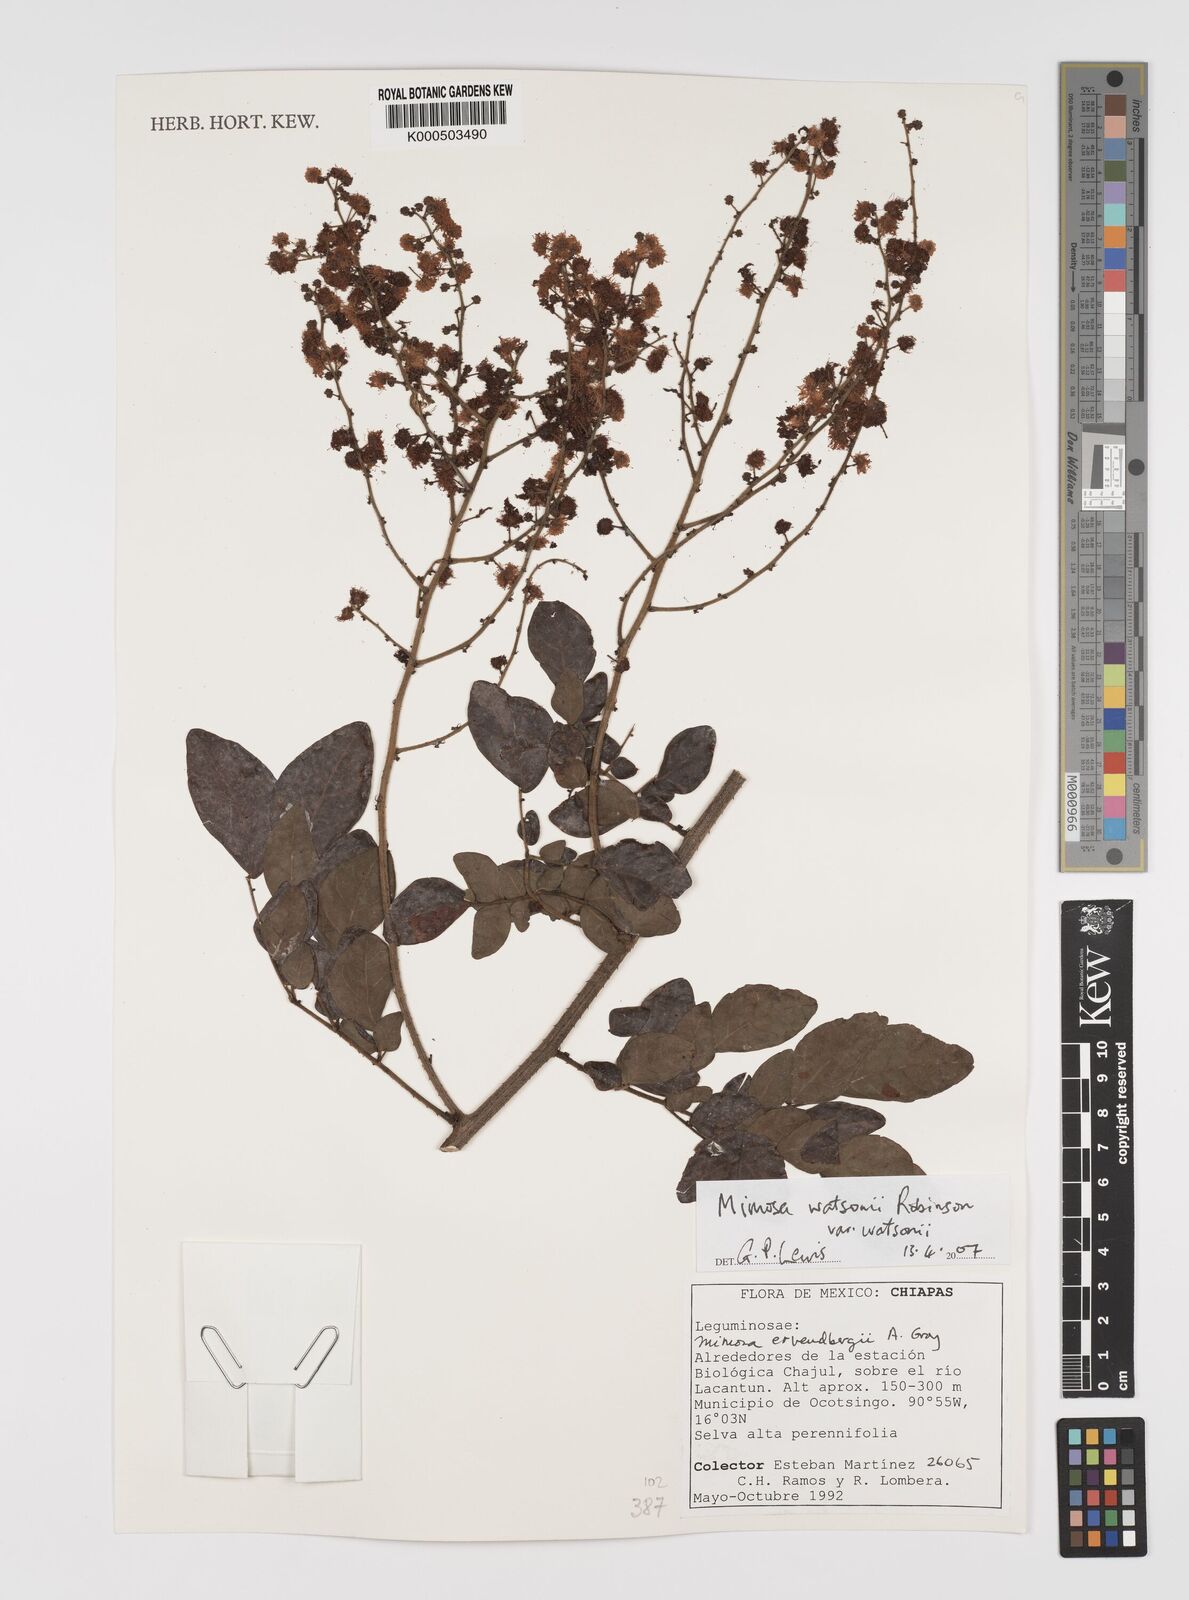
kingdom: Plantae
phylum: Tracheophyta
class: Magnoliopsida
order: Fabales
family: Fabaceae
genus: Mimosa
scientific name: Mimosa watsonii
